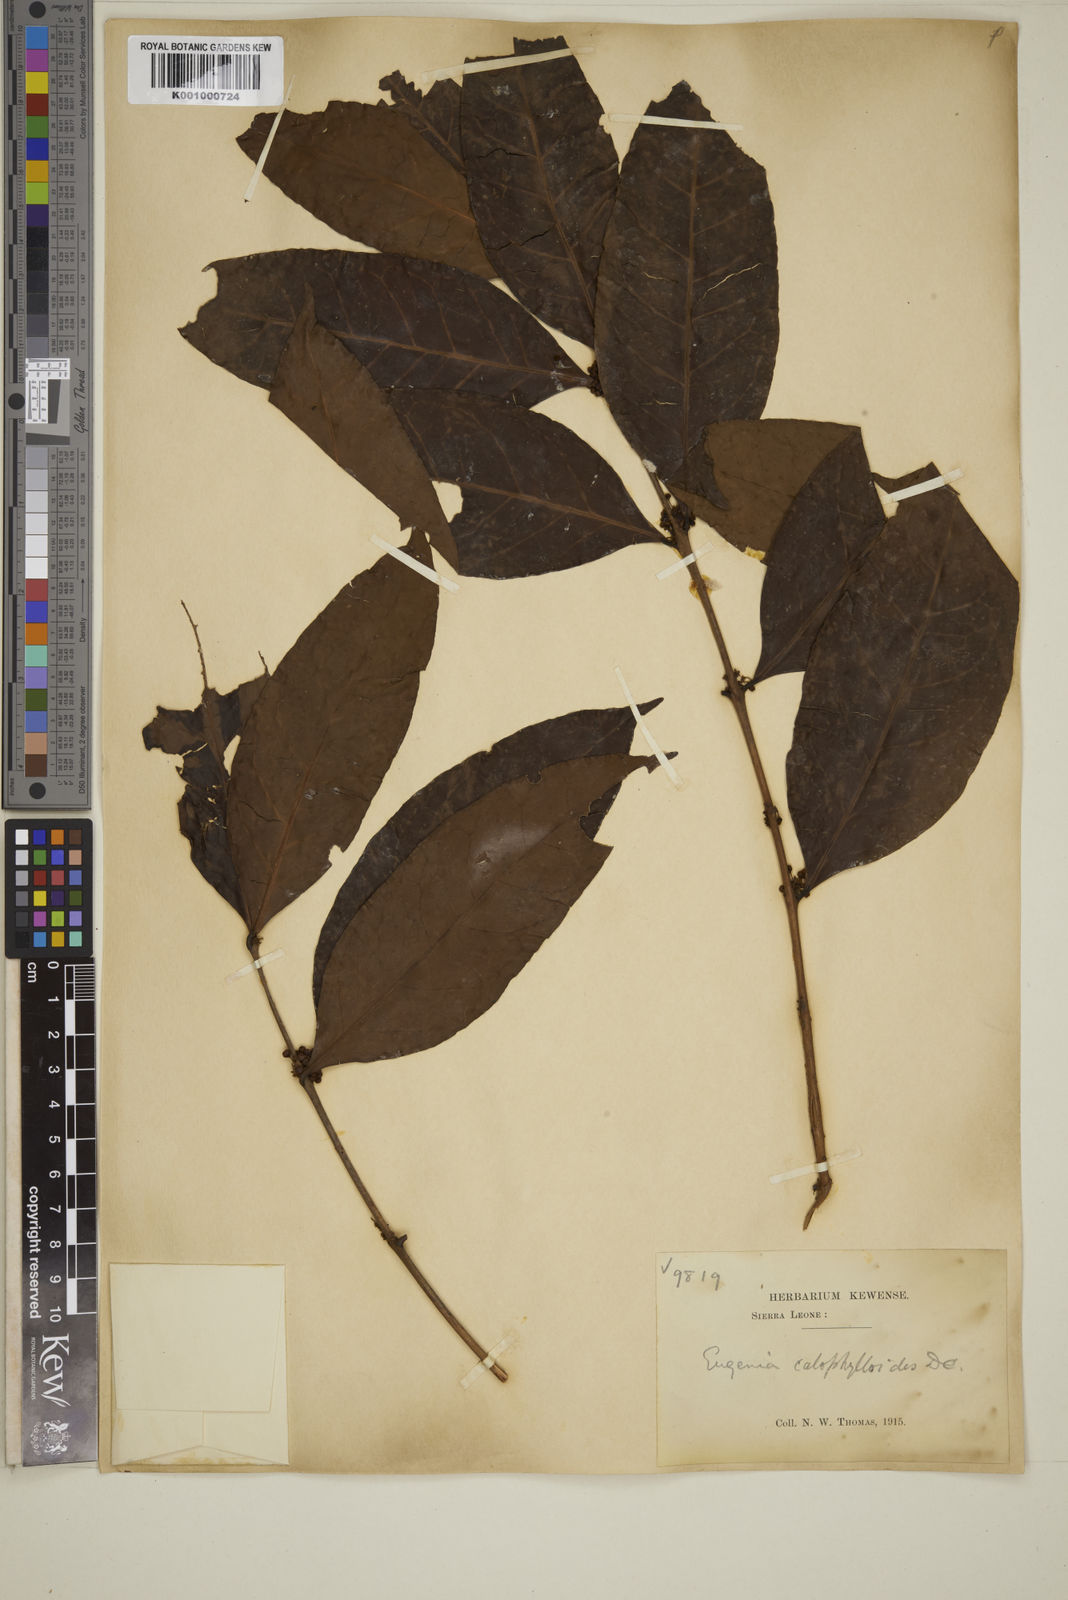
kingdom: Plantae
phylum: Tracheophyta
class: Magnoliopsida
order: Myrtales
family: Myrtaceae
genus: Eugenia
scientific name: Eugenia calophylloides
